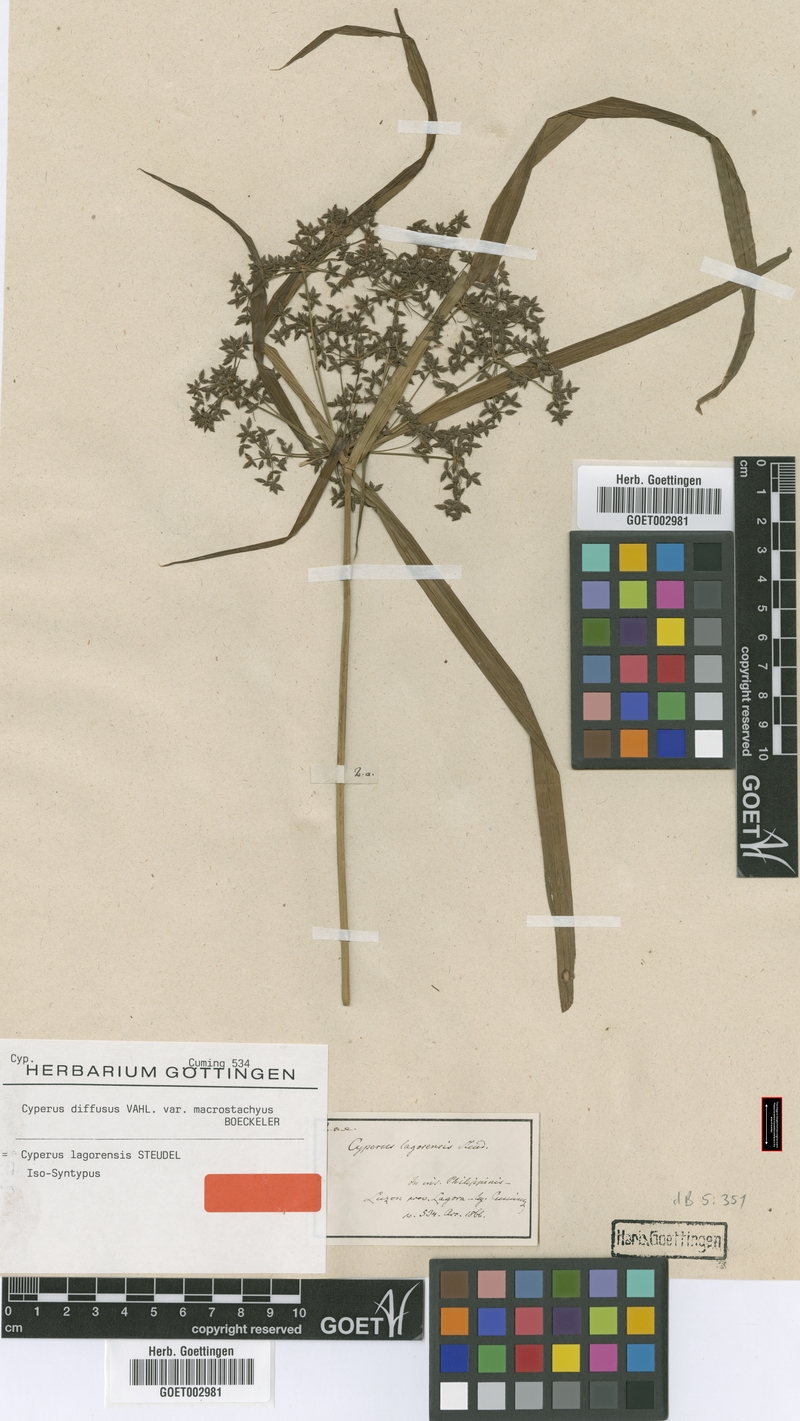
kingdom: Plantae
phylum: Tracheophyta
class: Liliopsida
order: Poales
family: Cyperaceae
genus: Cyperus
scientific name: Cyperus diffusus
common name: Dwarf umbrella grass
